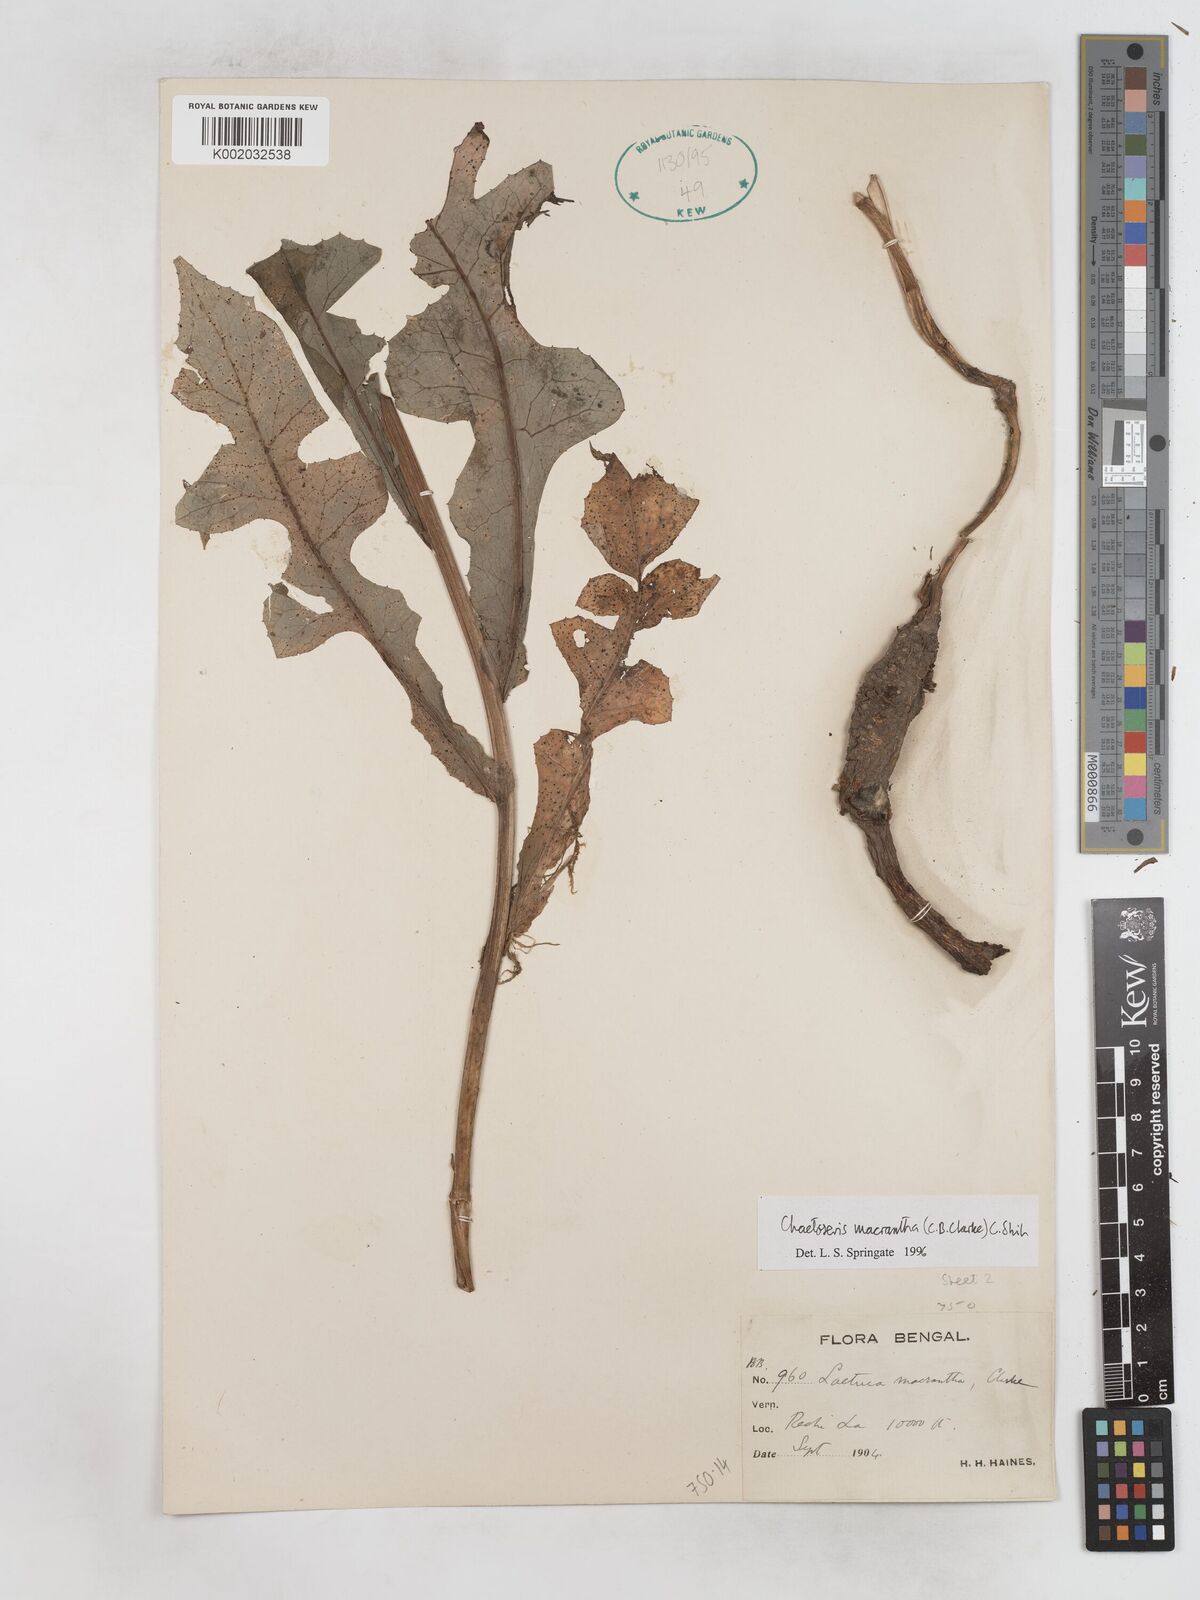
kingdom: Plantae
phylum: Tracheophyta
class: Magnoliopsida
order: Asterales
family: Asteraceae
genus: Melanoseris
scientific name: Melanoseris macrantha
